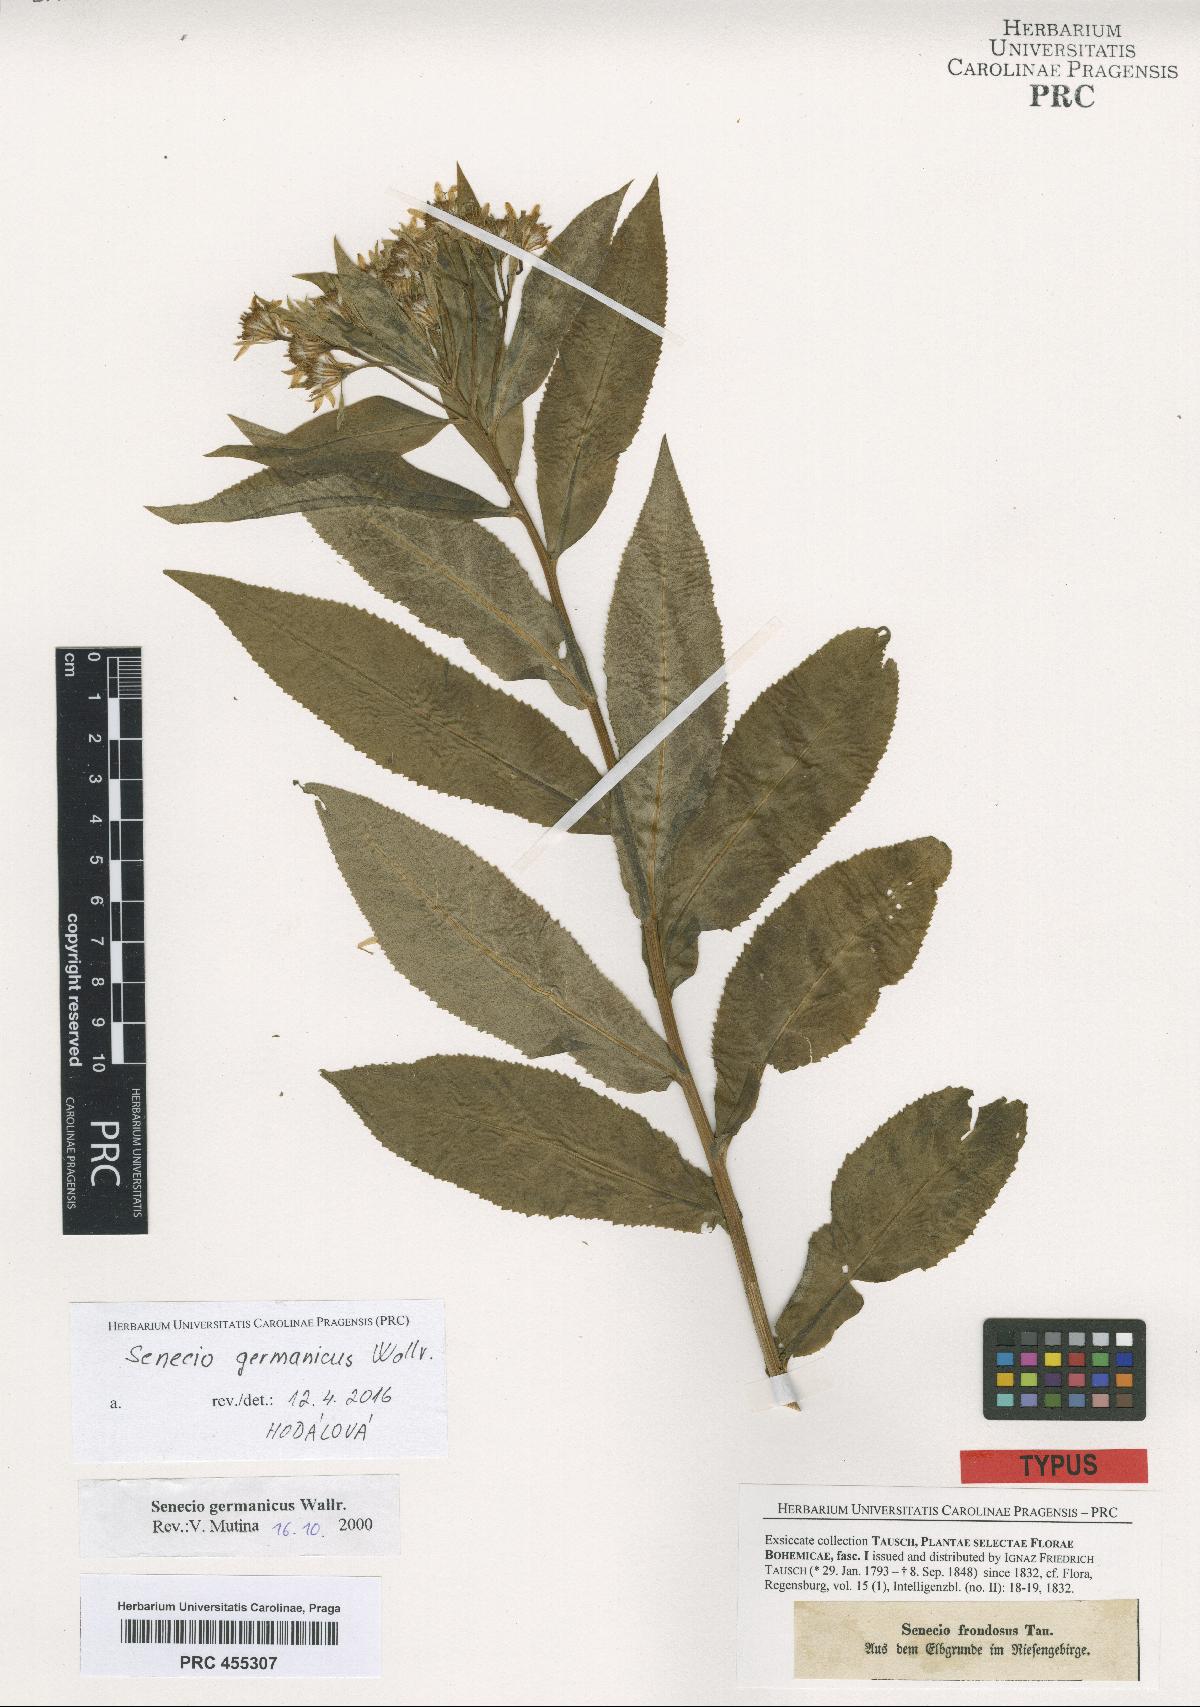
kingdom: Plantae
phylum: Tracheophyta
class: Magnoliopsida
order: Asterales
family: Asteraceae
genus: Senecio
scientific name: Senecio germanicus
